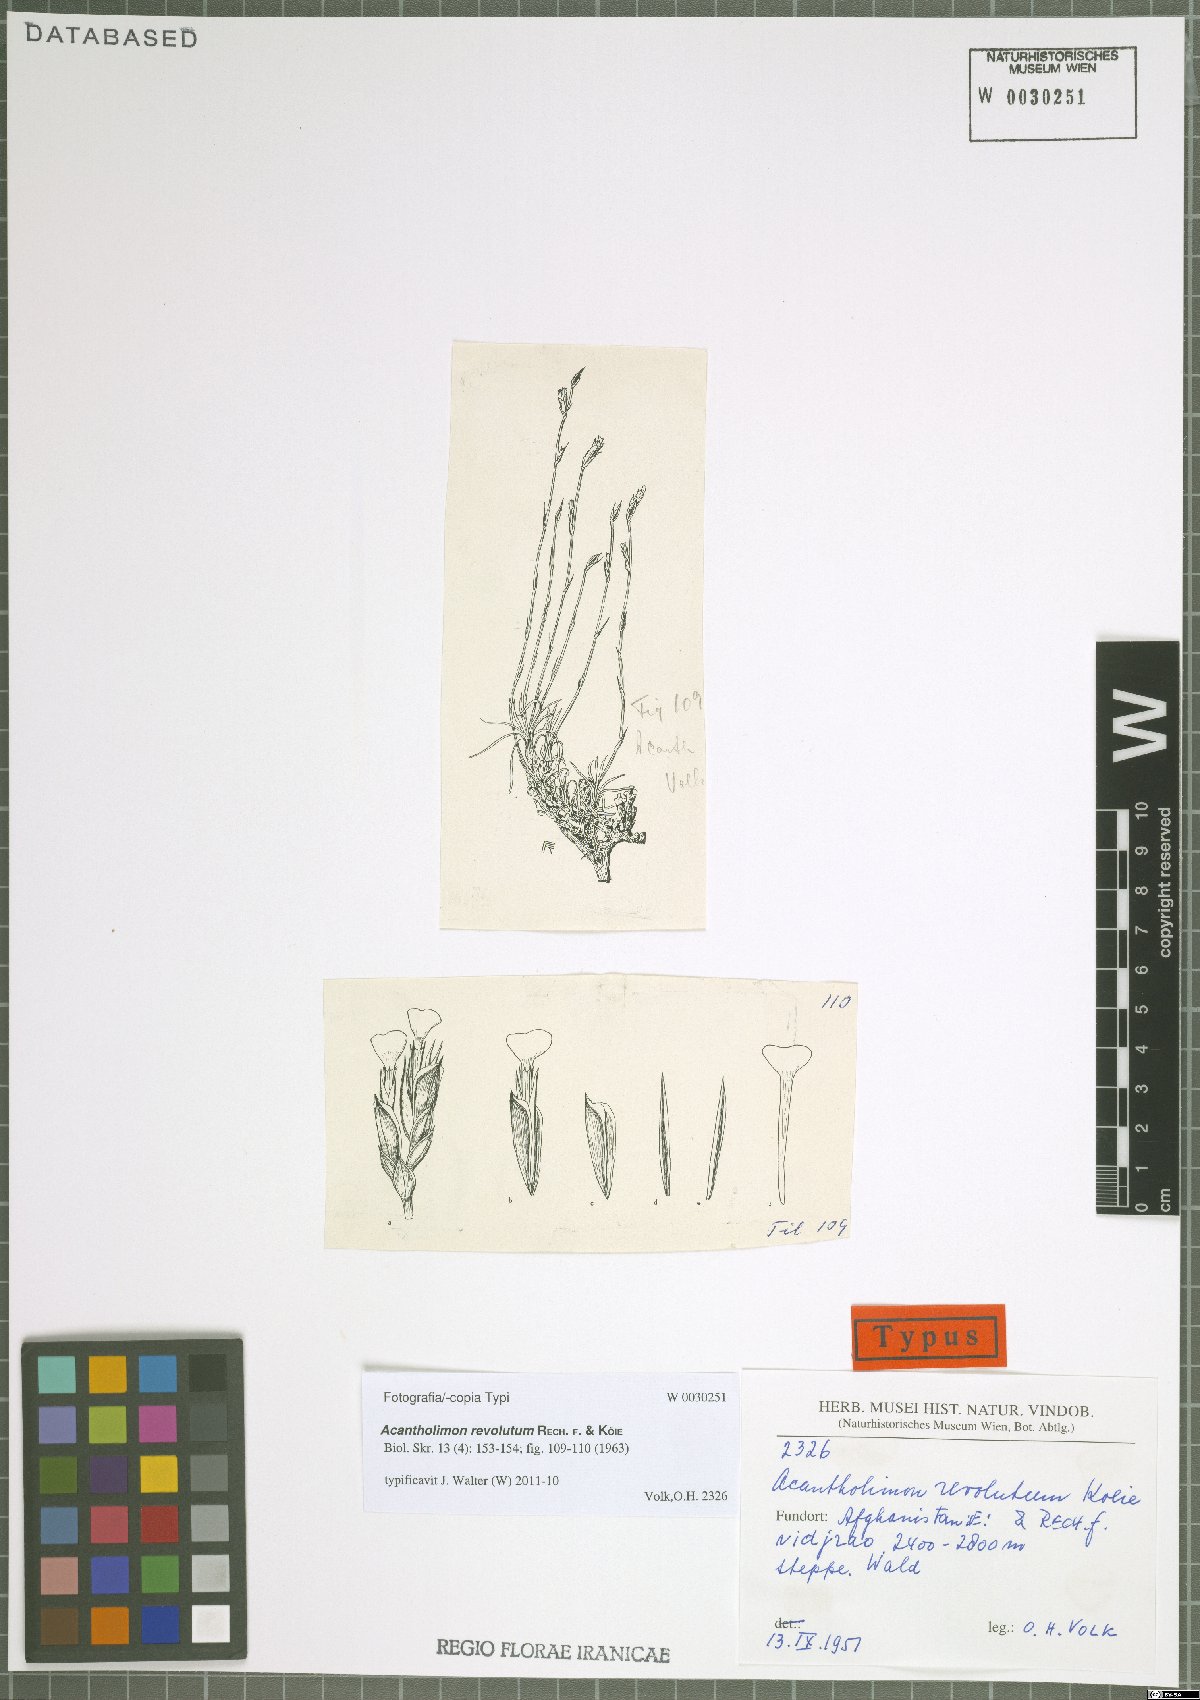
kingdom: Plantae
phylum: Tracheophyta
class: Magnoliopsida
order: Caryophyllales
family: Plumbaginaceae
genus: Acantholimon
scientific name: Acantholimon revolutum
